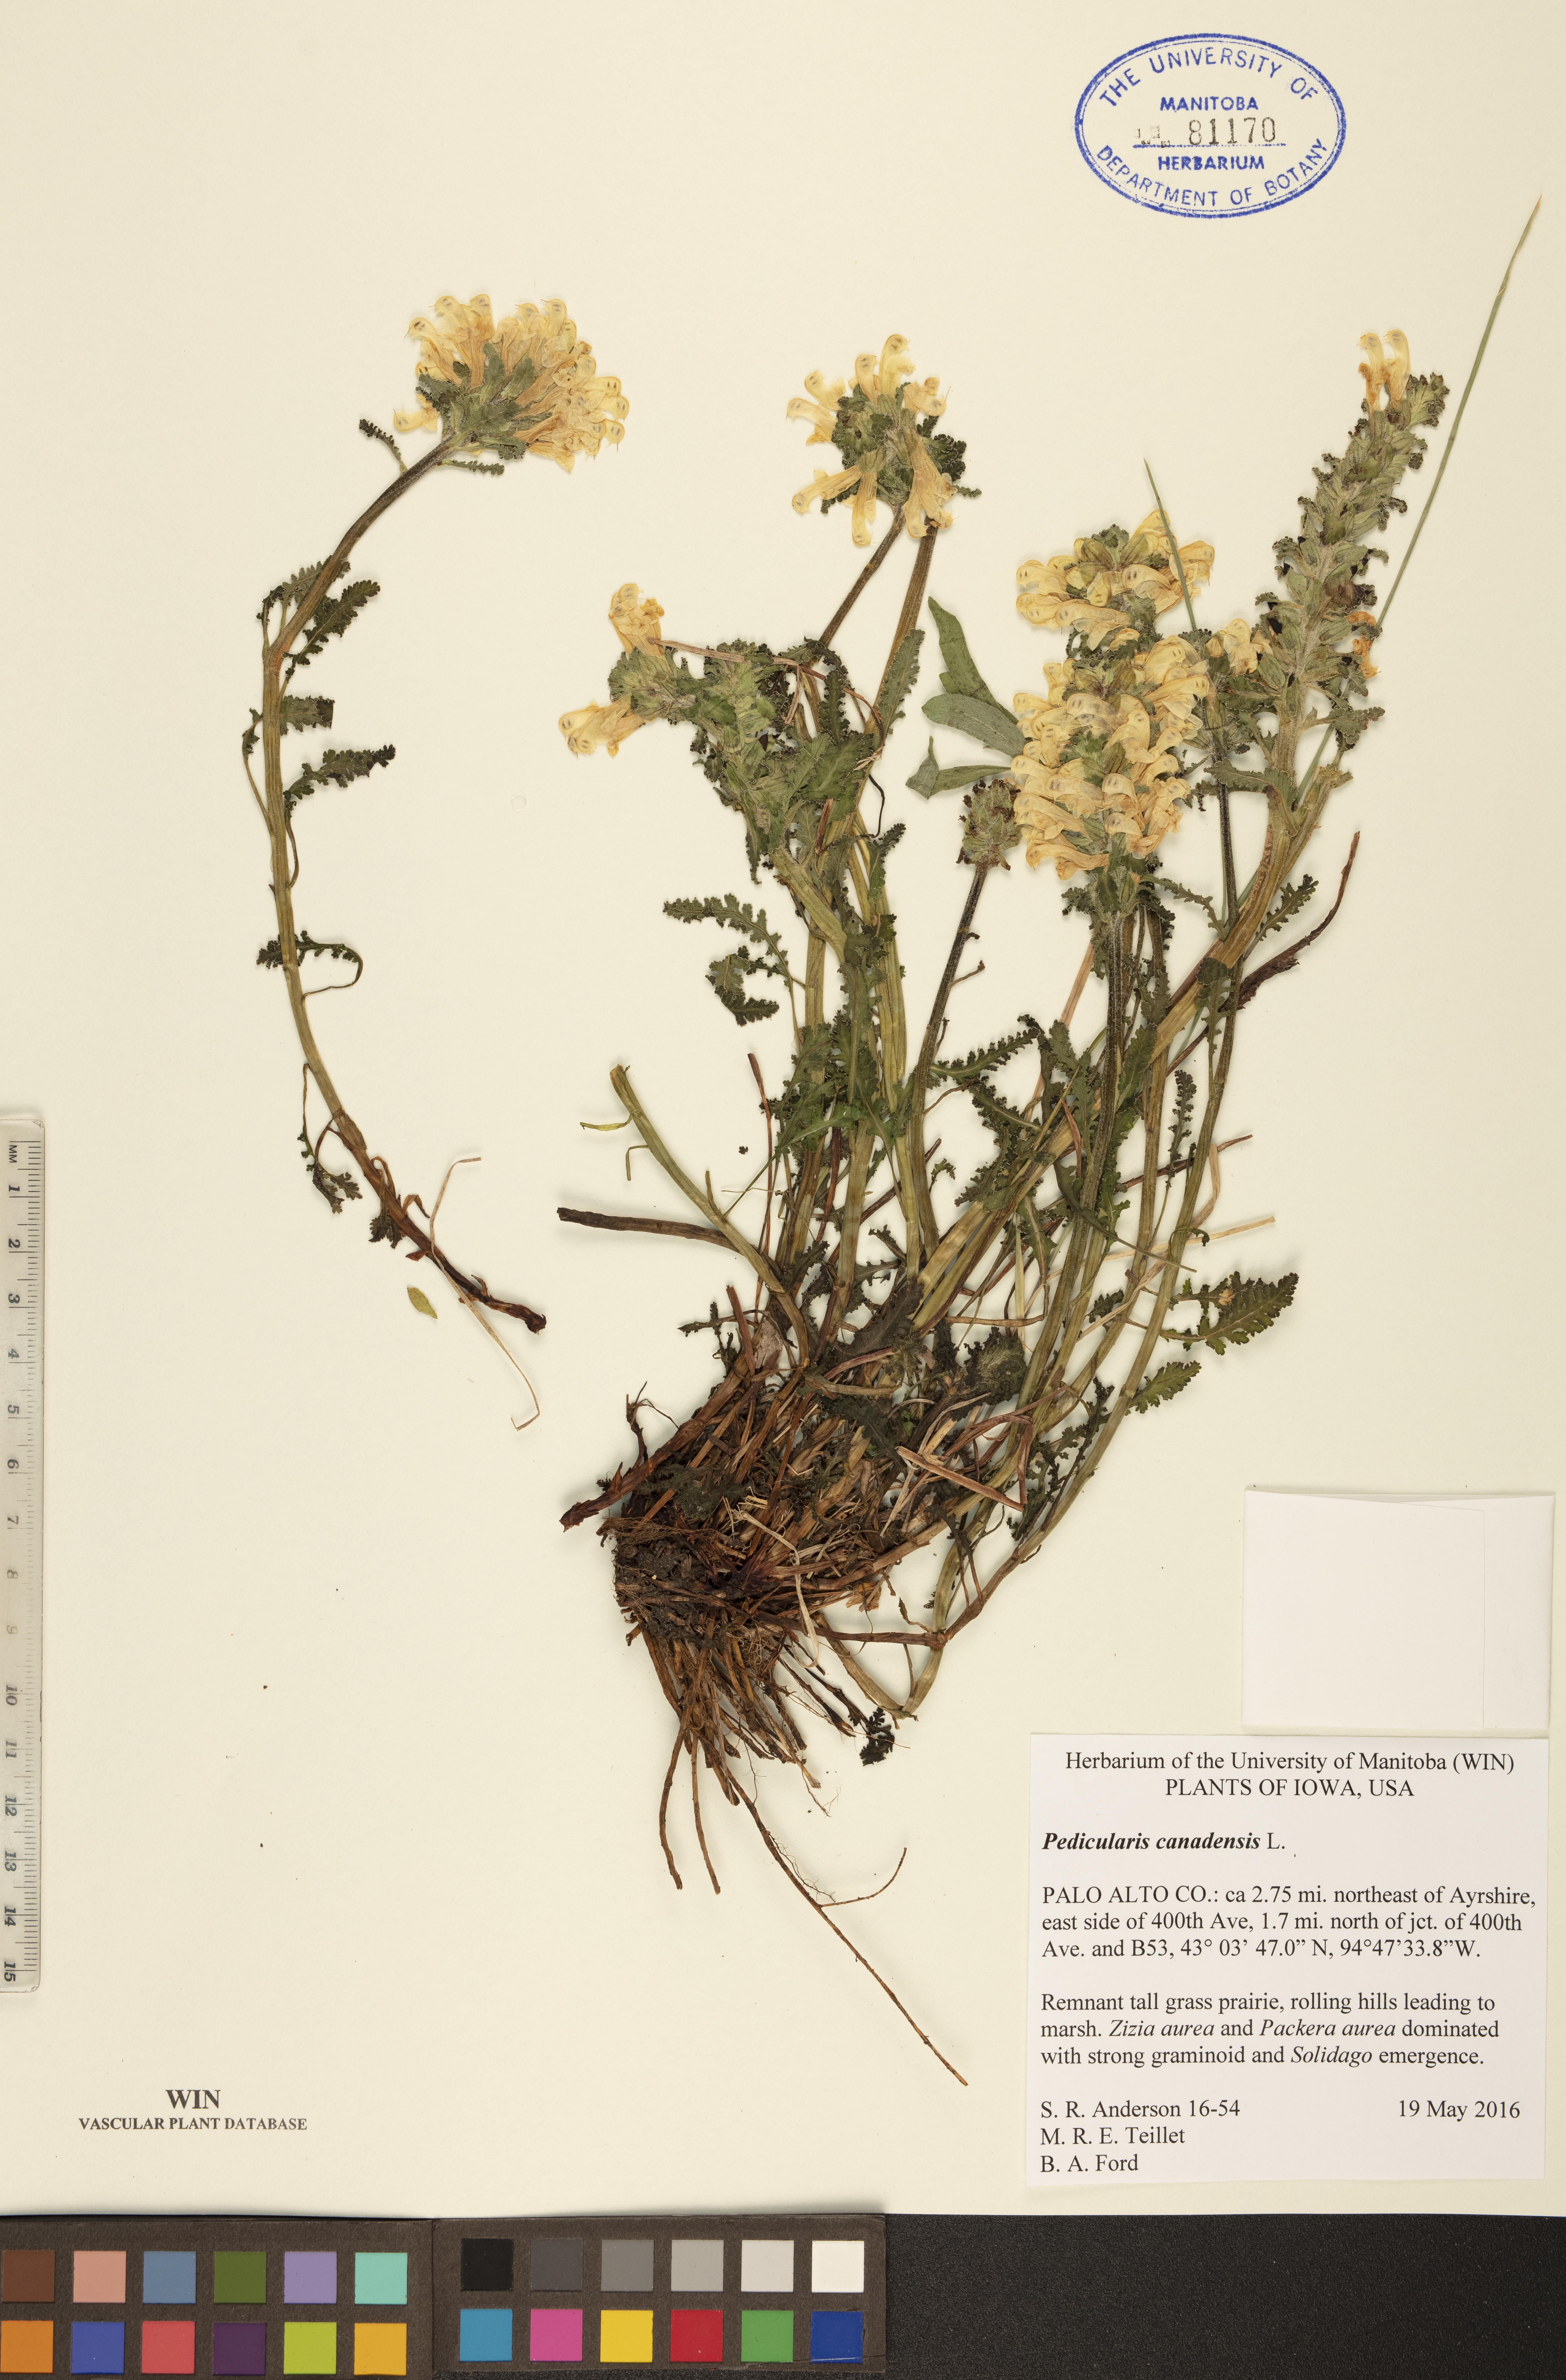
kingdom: Plantae
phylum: Tracheophyta
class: Magnoliopsida
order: Lamiales
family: Orobanchaceae
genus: Pedicularis
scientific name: Pedicularis canadensis
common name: Early lousewort
